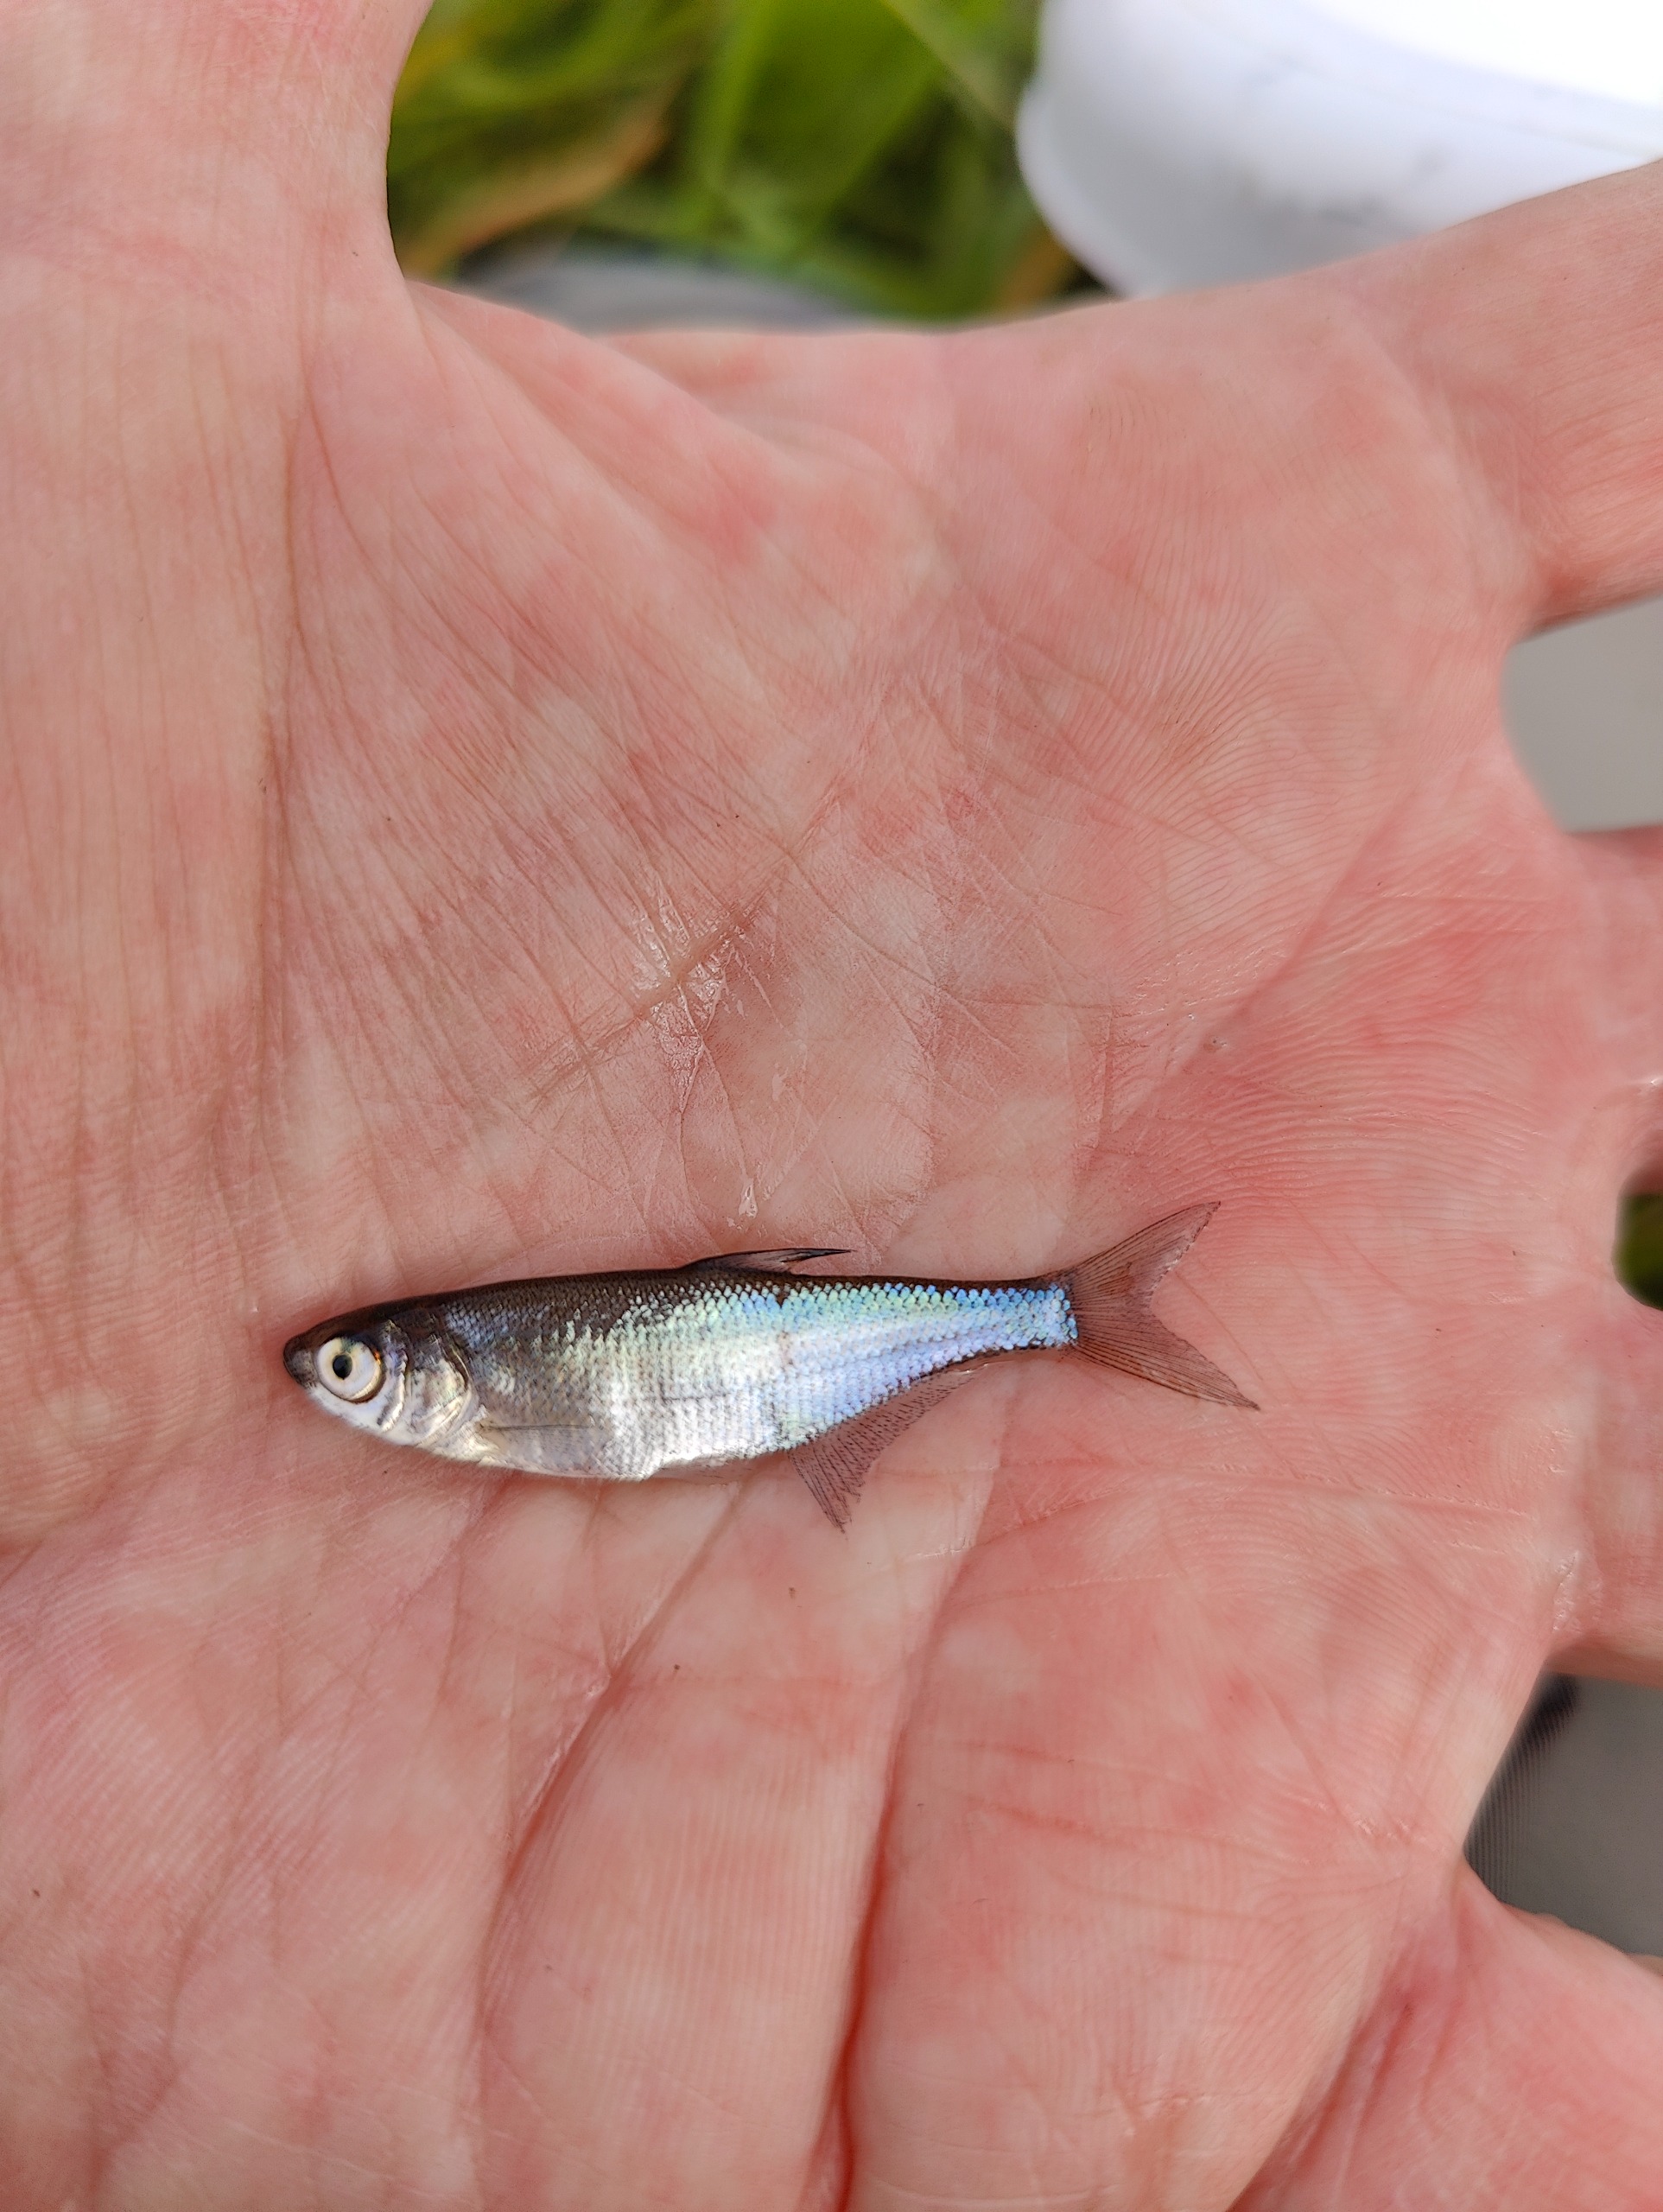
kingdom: Animalia
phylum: Chordata
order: Cypriniformes
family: Cyprinidae
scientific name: Cyprinidae
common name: Karpefamilien
